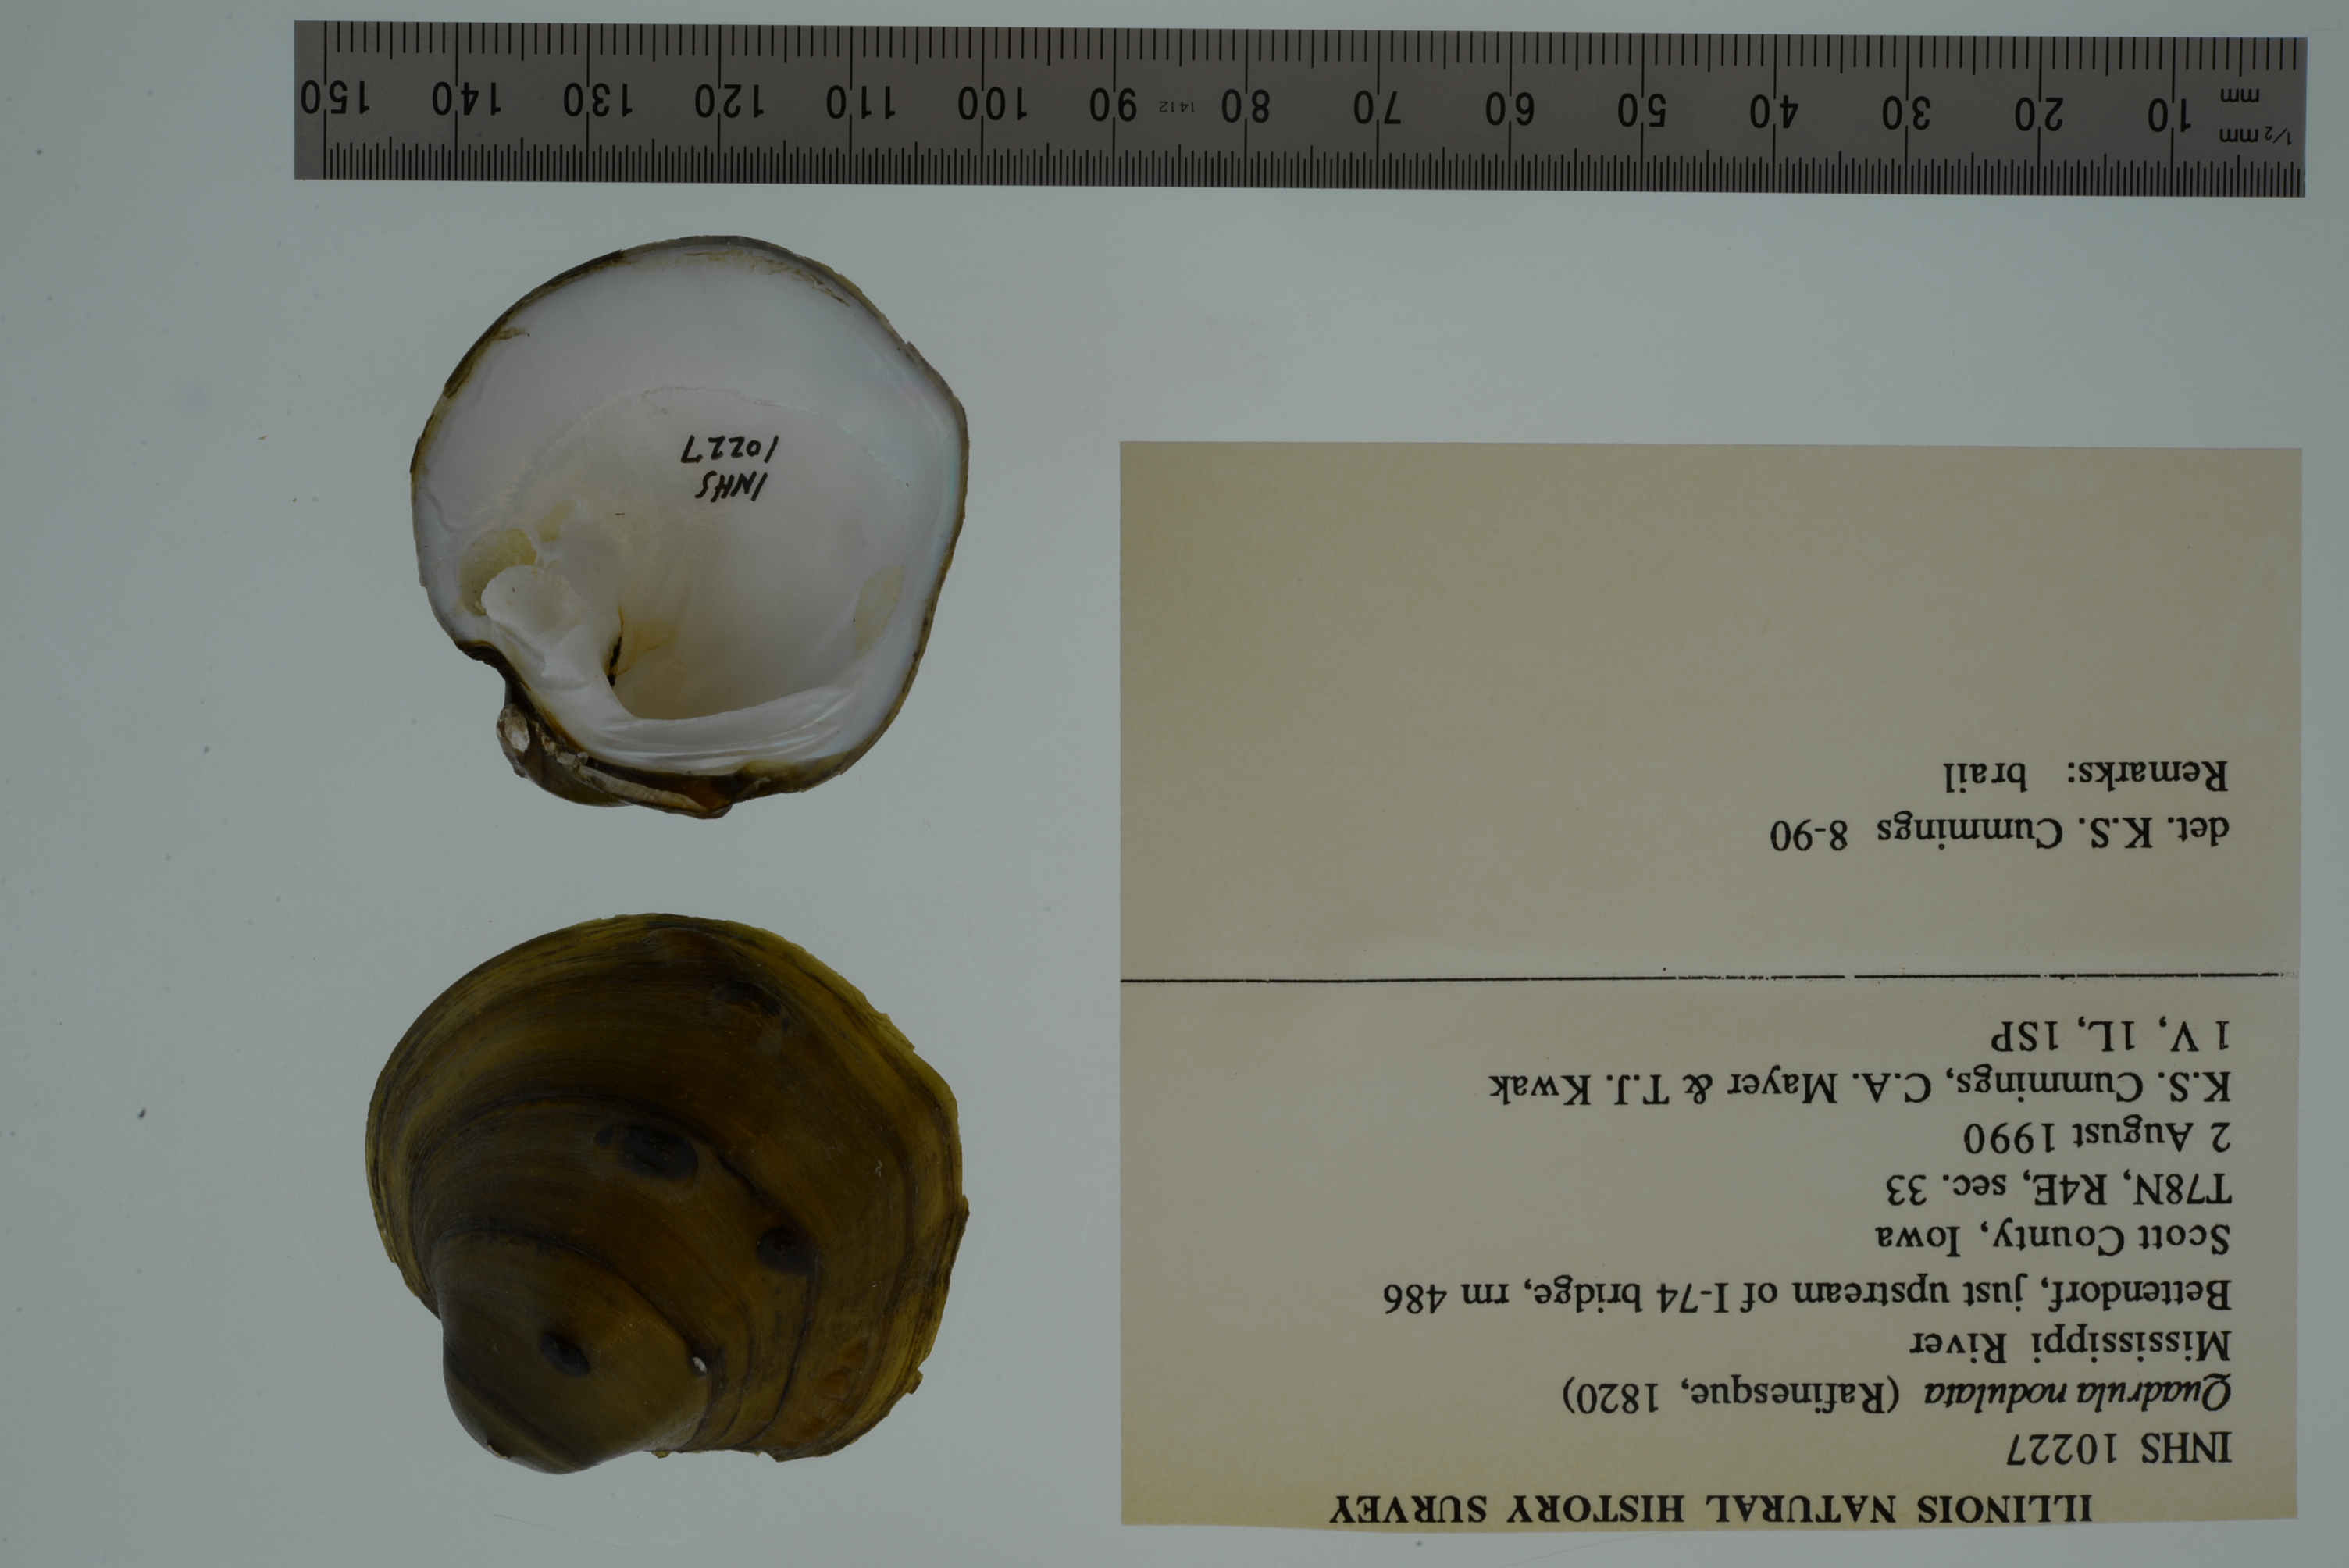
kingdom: Animalia
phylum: Mollusca
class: Bivalvia
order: Unionida
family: Unionidae
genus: Cyclonaias
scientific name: Cyclonaias nodulata
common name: Wartyback
